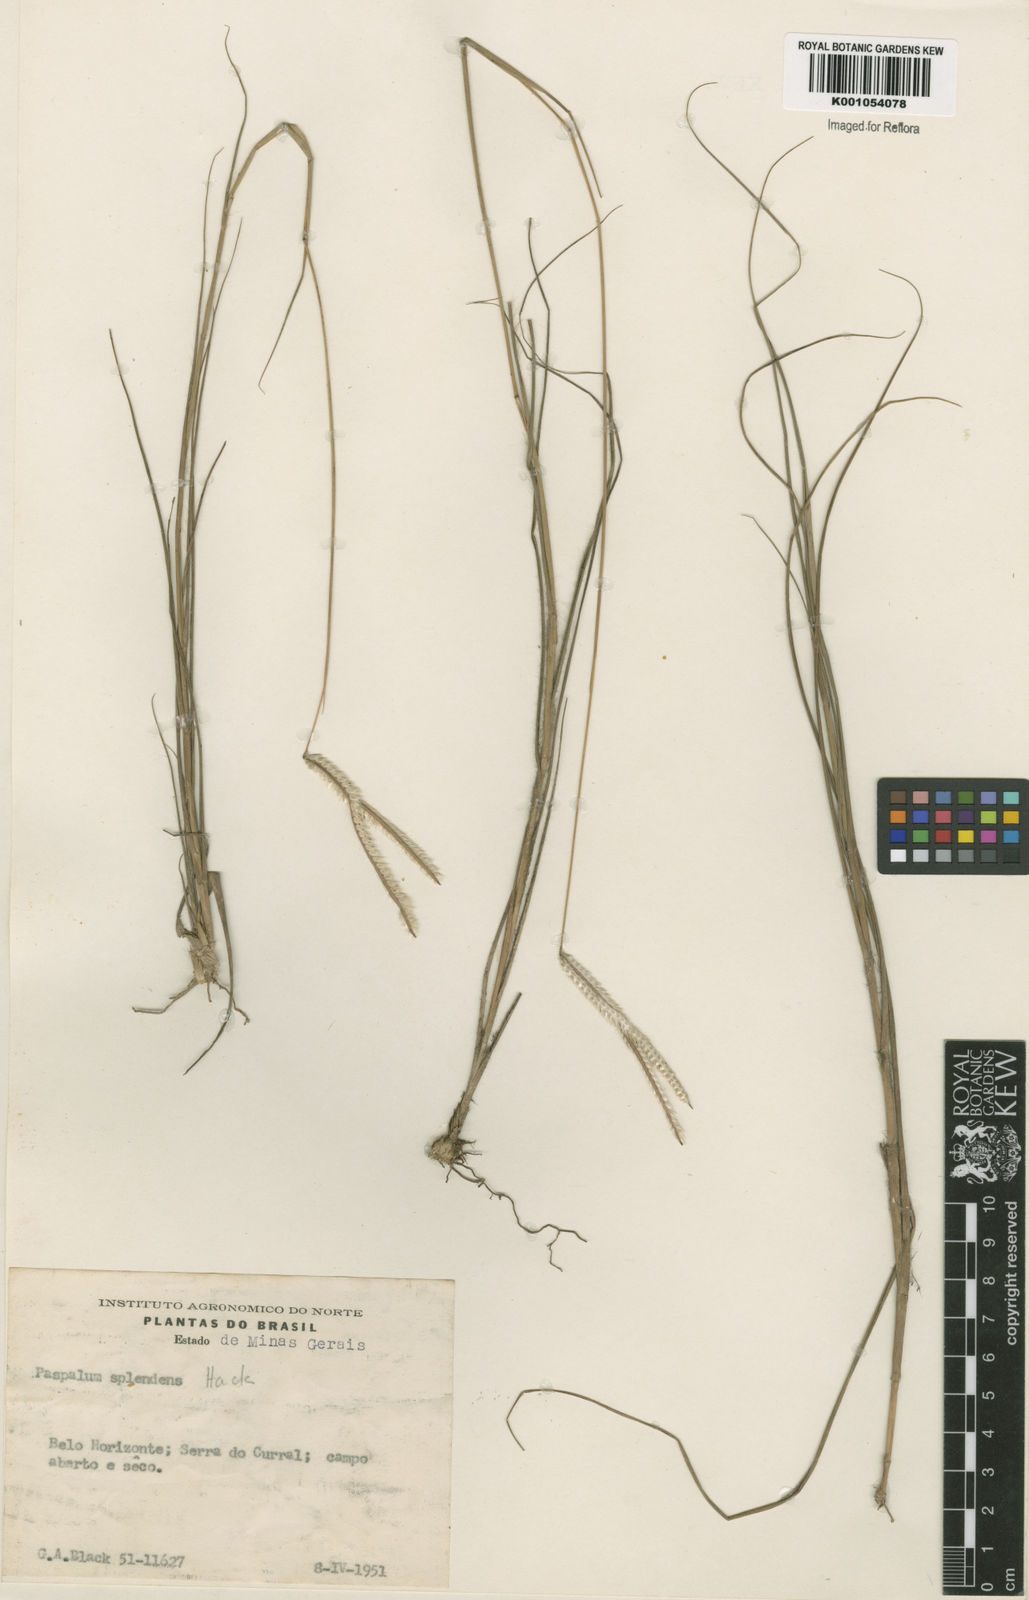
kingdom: Plantae
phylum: Tracheophyta
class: Liliopsida
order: Poales
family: Poaceae
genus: Paspalum
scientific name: Paspalum eucomum
